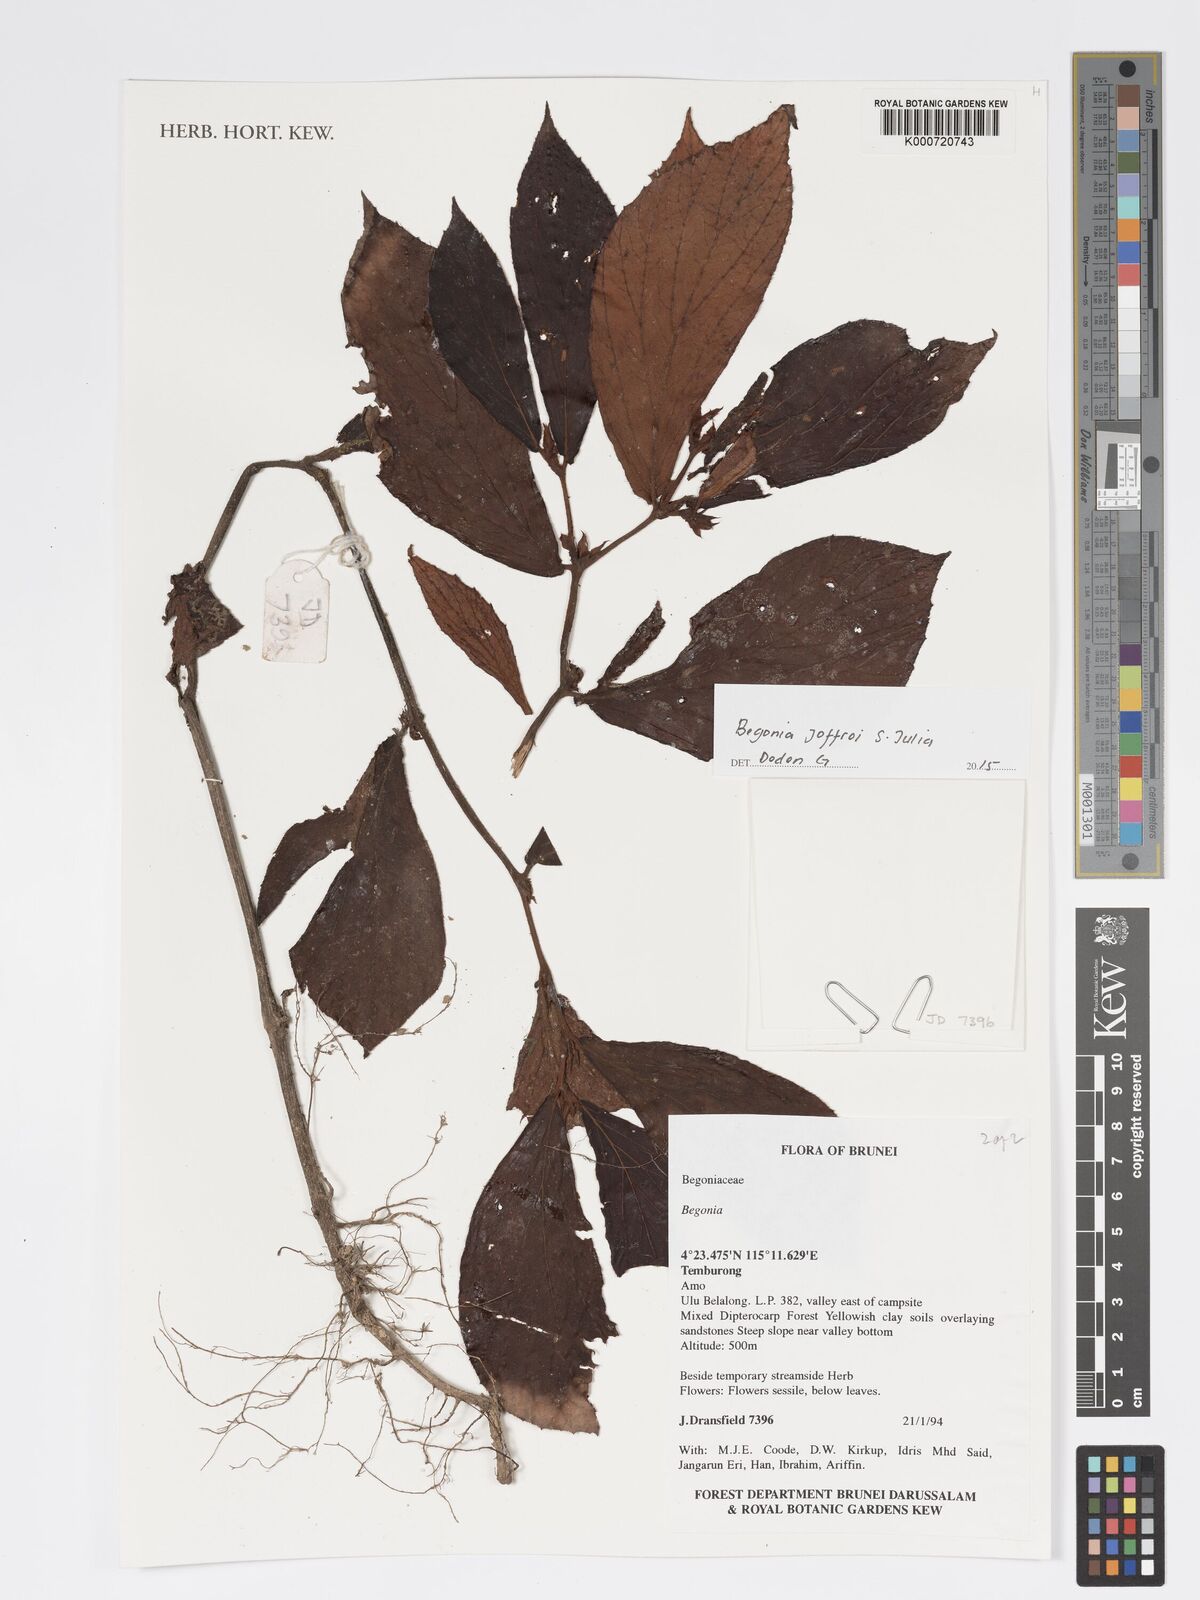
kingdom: Plantae
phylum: Tracheophyta
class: Magnoliopsida
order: Cucurbitales
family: Begoniaceae
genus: Begonia
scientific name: Begonia joffrei
